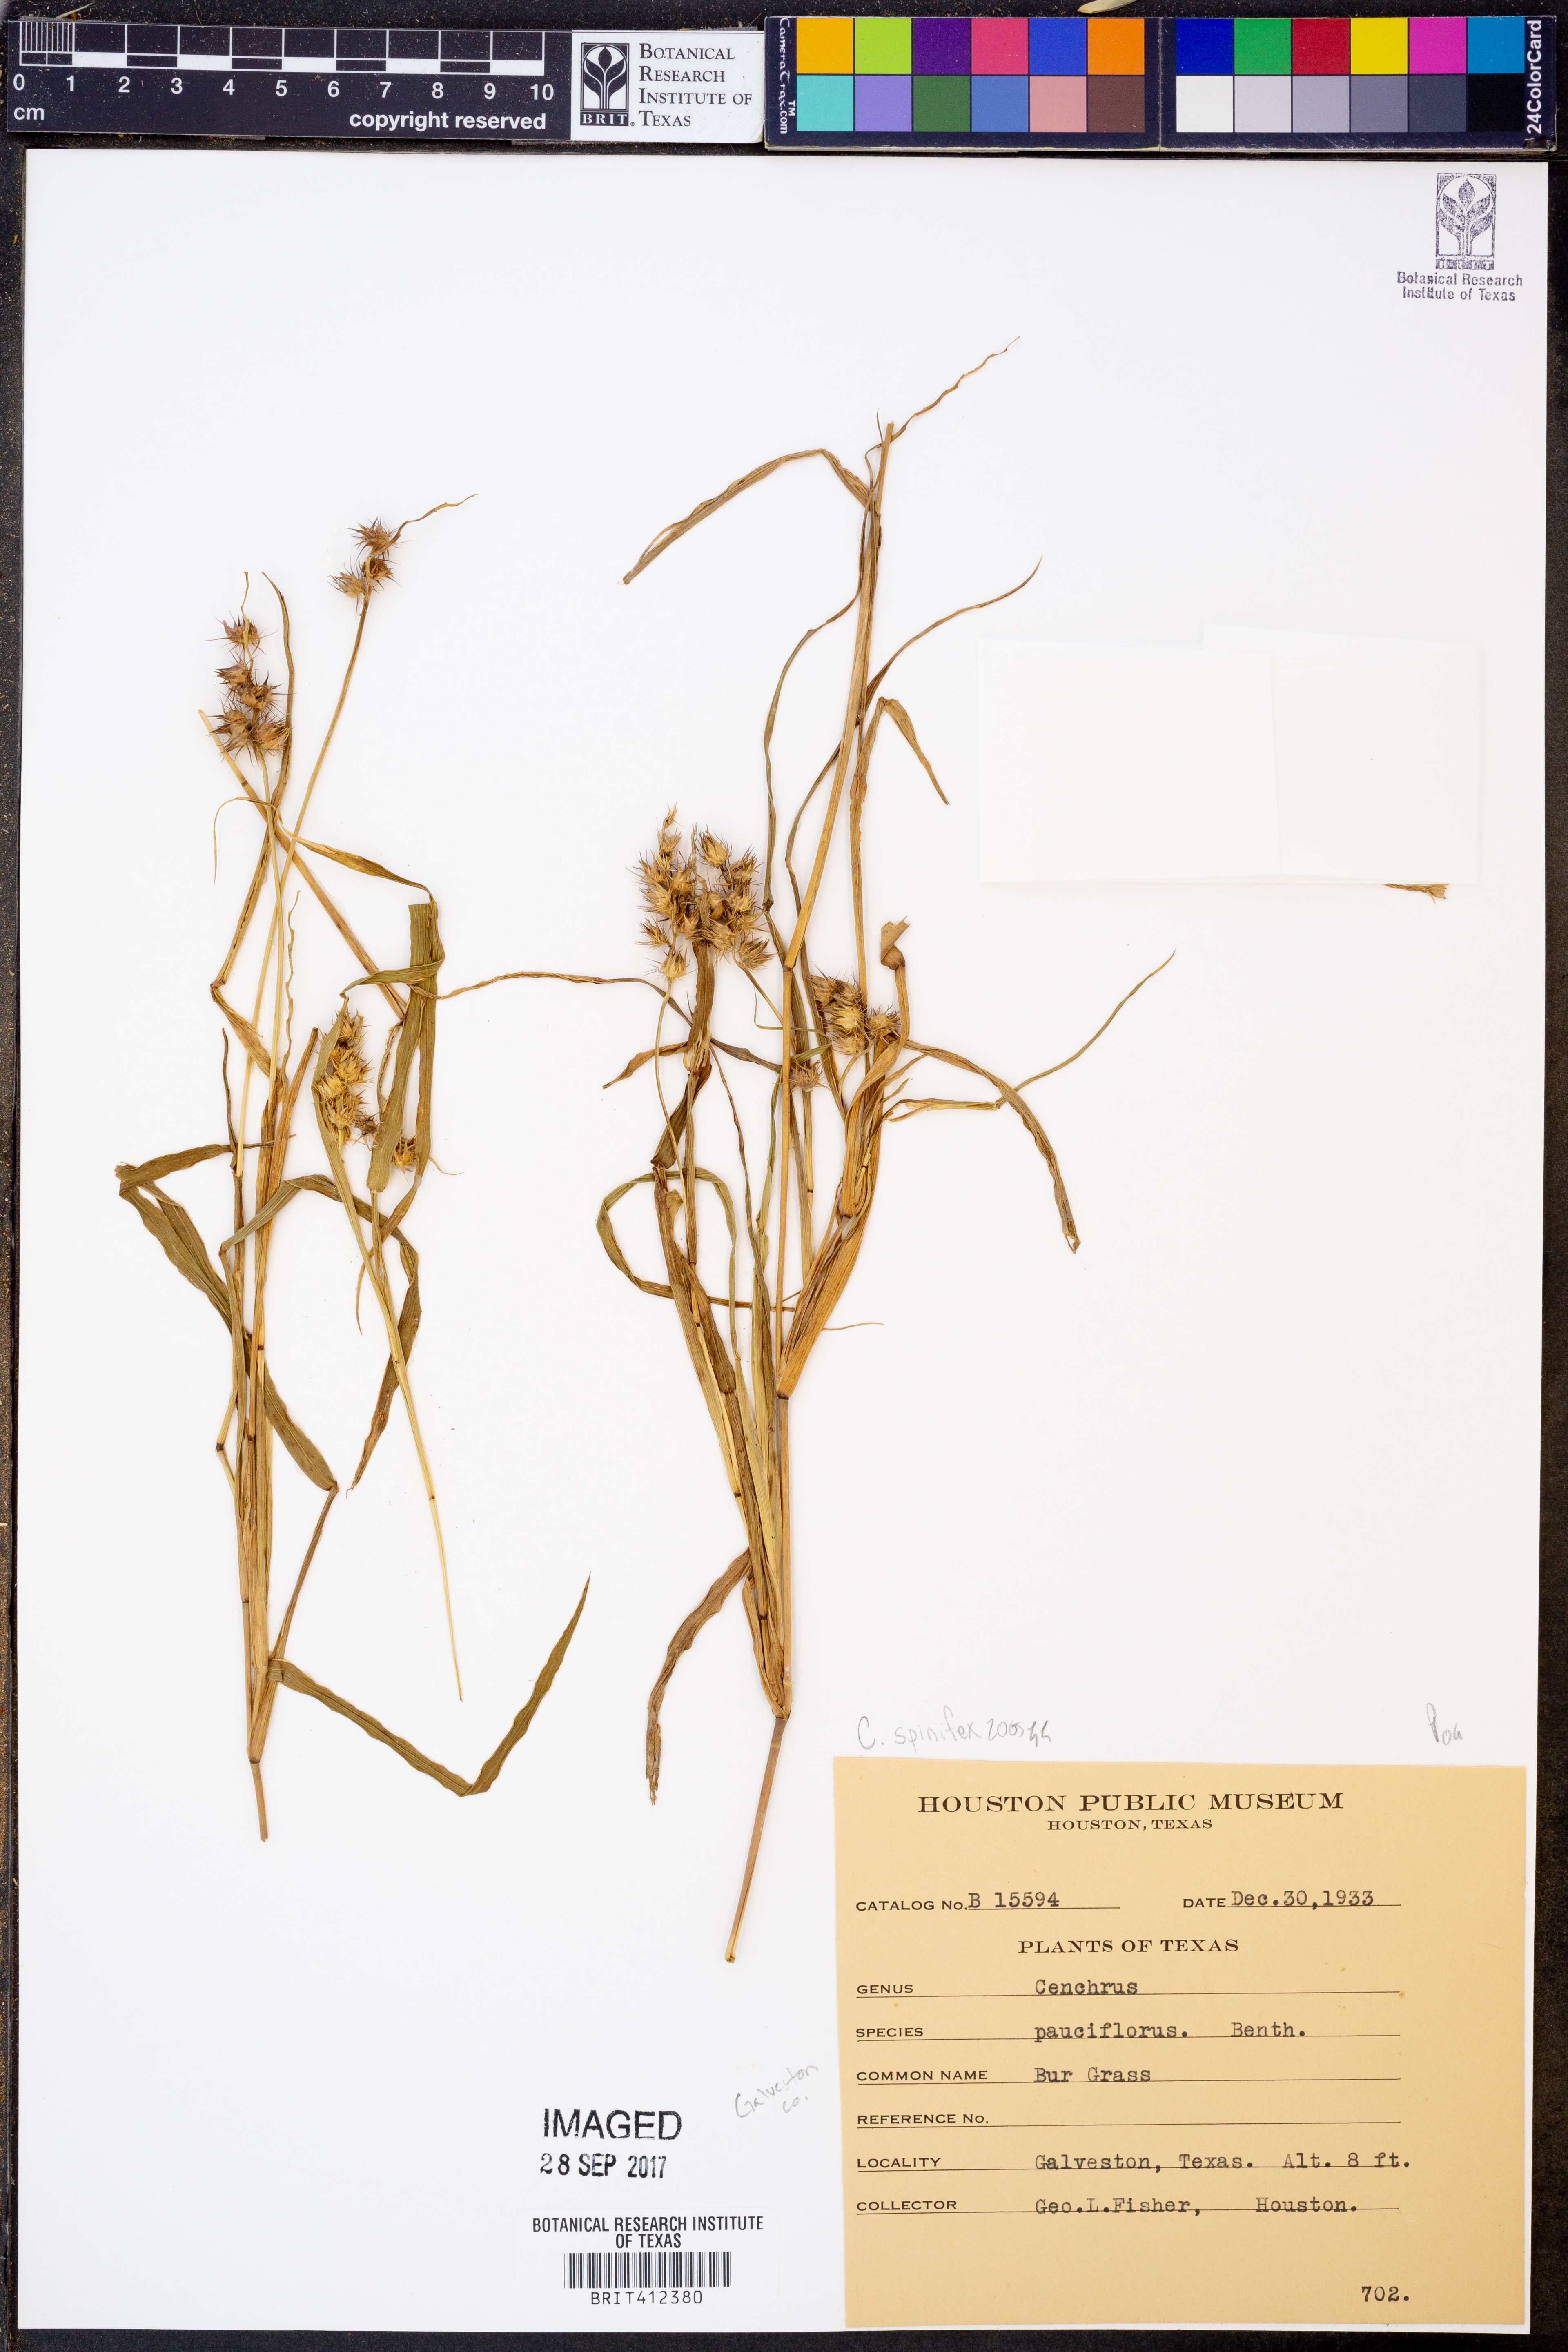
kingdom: Plantae
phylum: Tracheophyta
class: Liliopsida
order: Poales
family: Poaceae
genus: Cenchrus
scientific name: Cenchrus spinifex
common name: Coast sandbur
